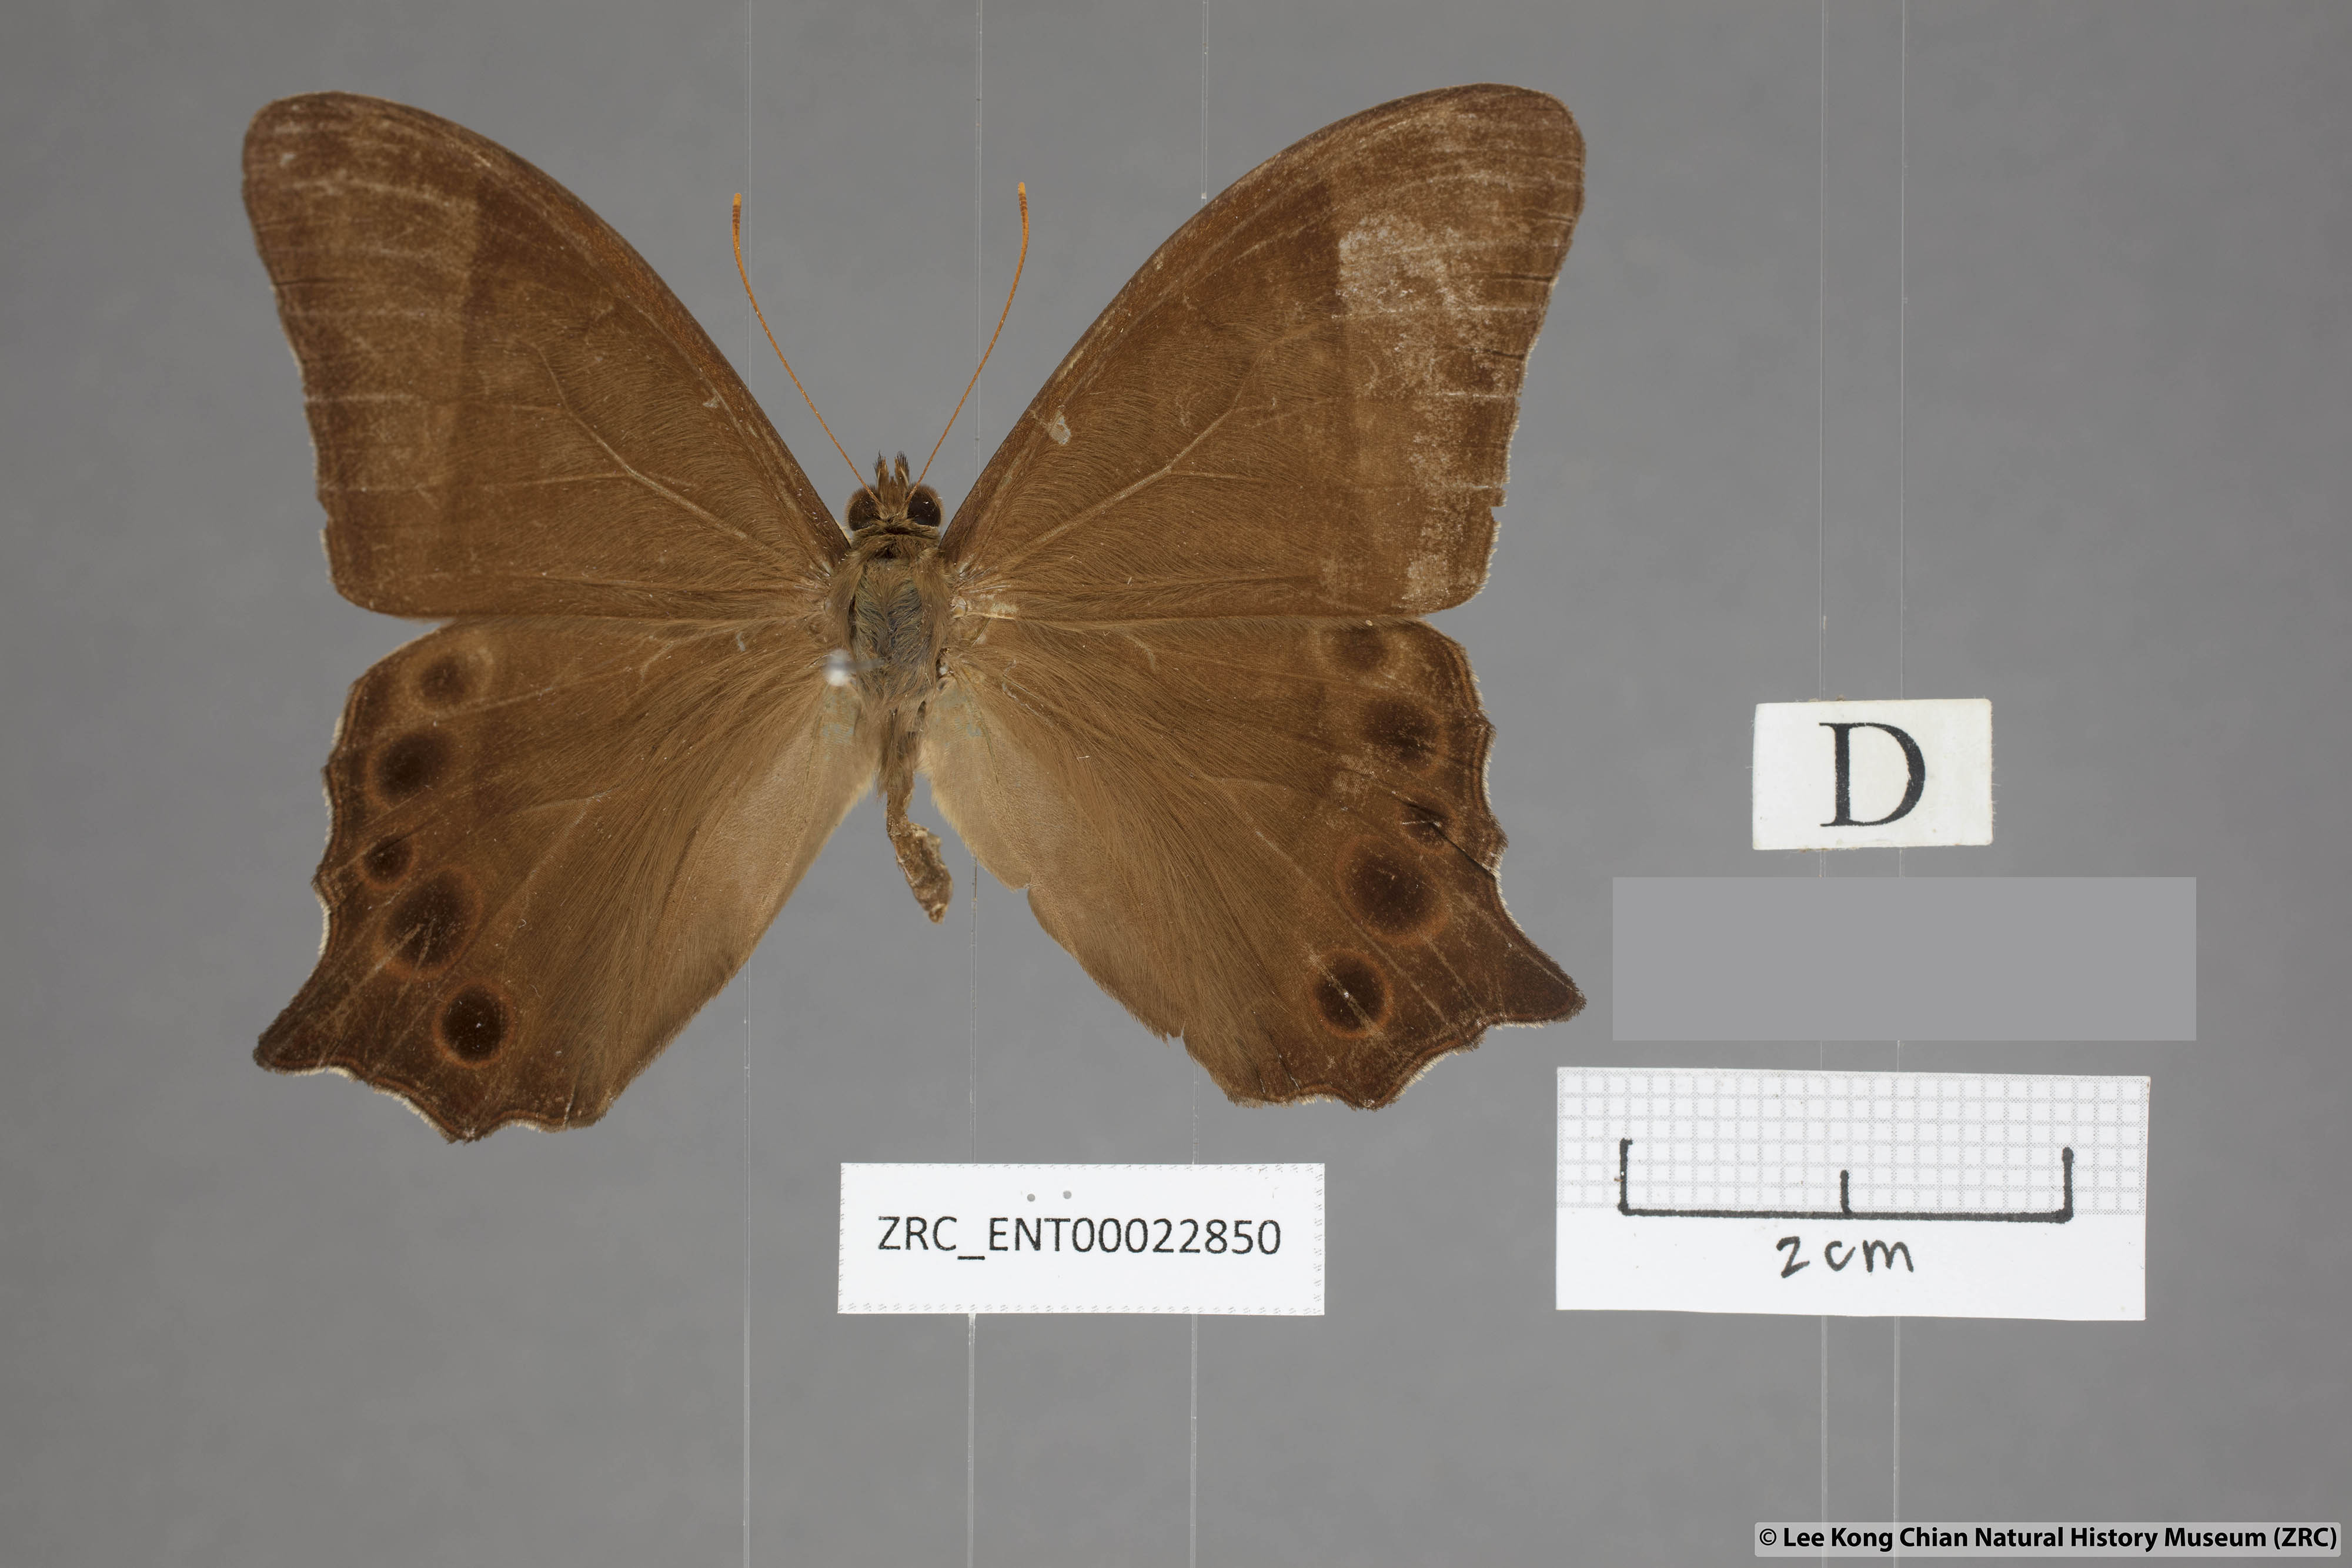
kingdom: Animalia
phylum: Arthropoda
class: Insecta
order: Lepidoptera
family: Nymphalidae
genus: Lethe
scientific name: Lethe vindhya
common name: Black forester
